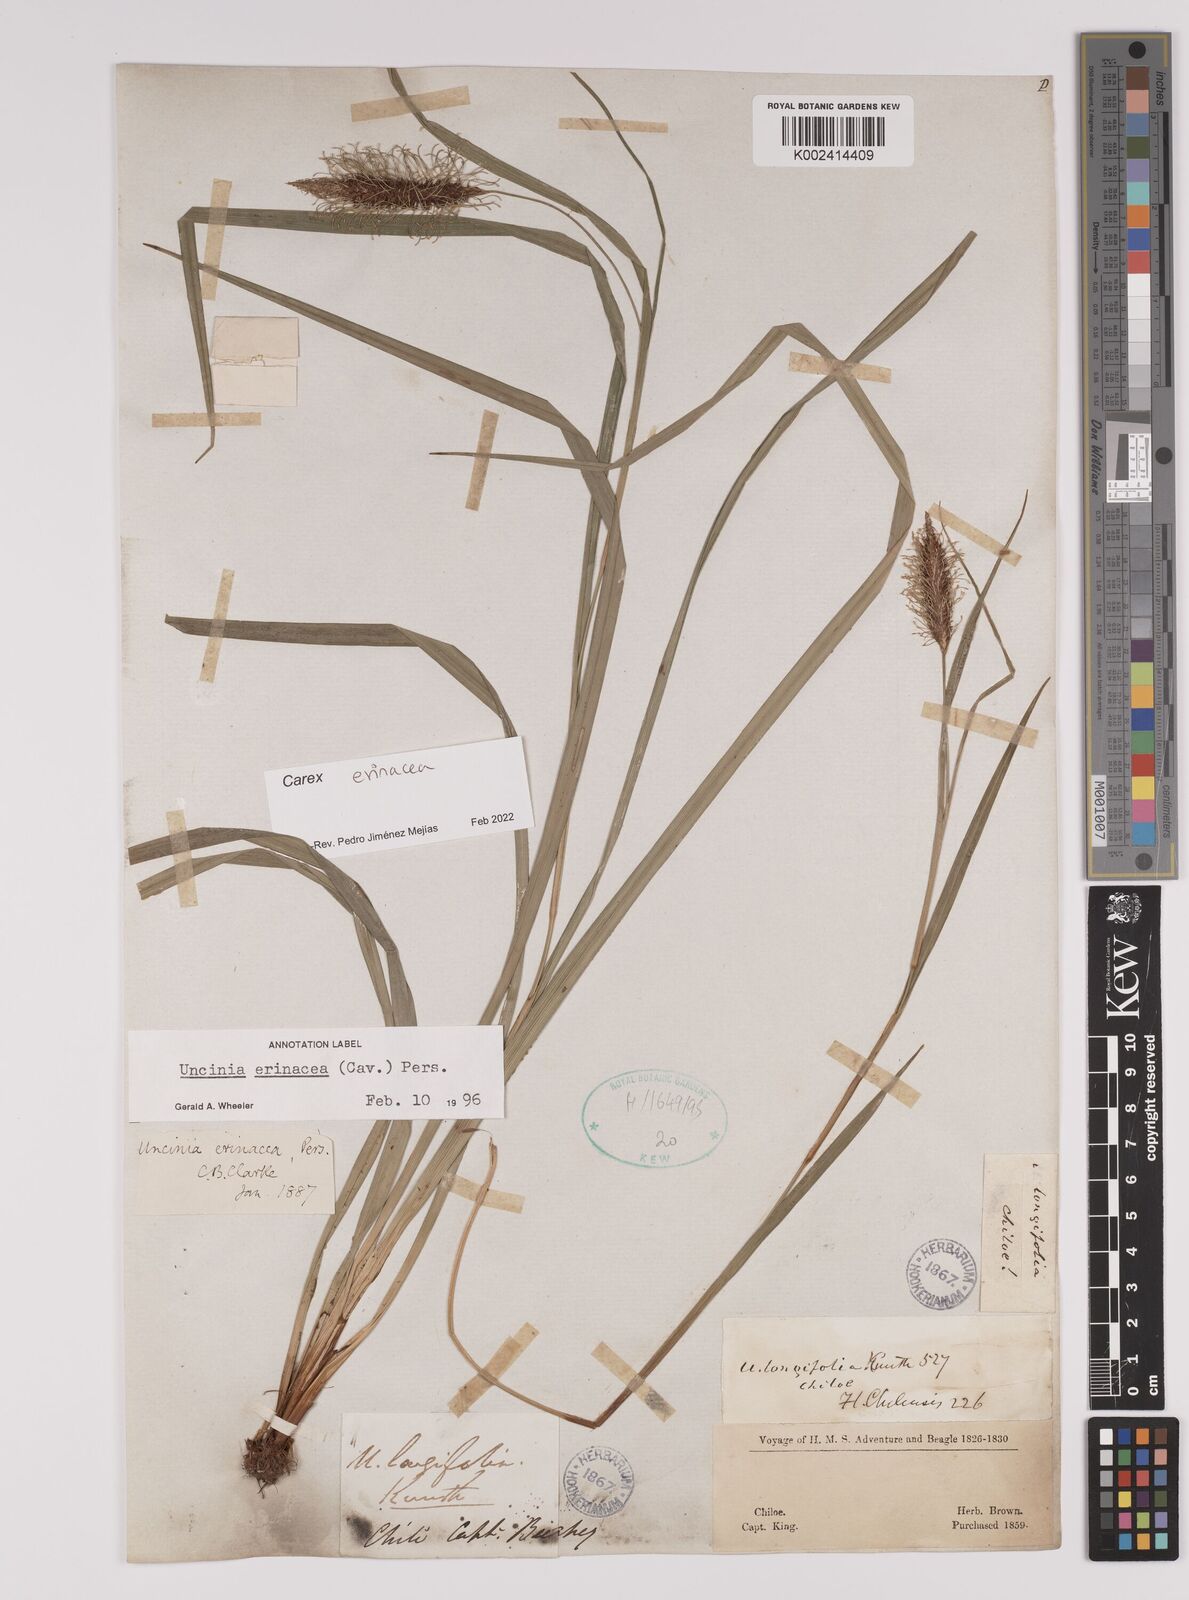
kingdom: Plantae
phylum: Tracheophyta
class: Liliopsida
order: Poales
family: Cyperaceae
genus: Carex
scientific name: Carex erinacea
